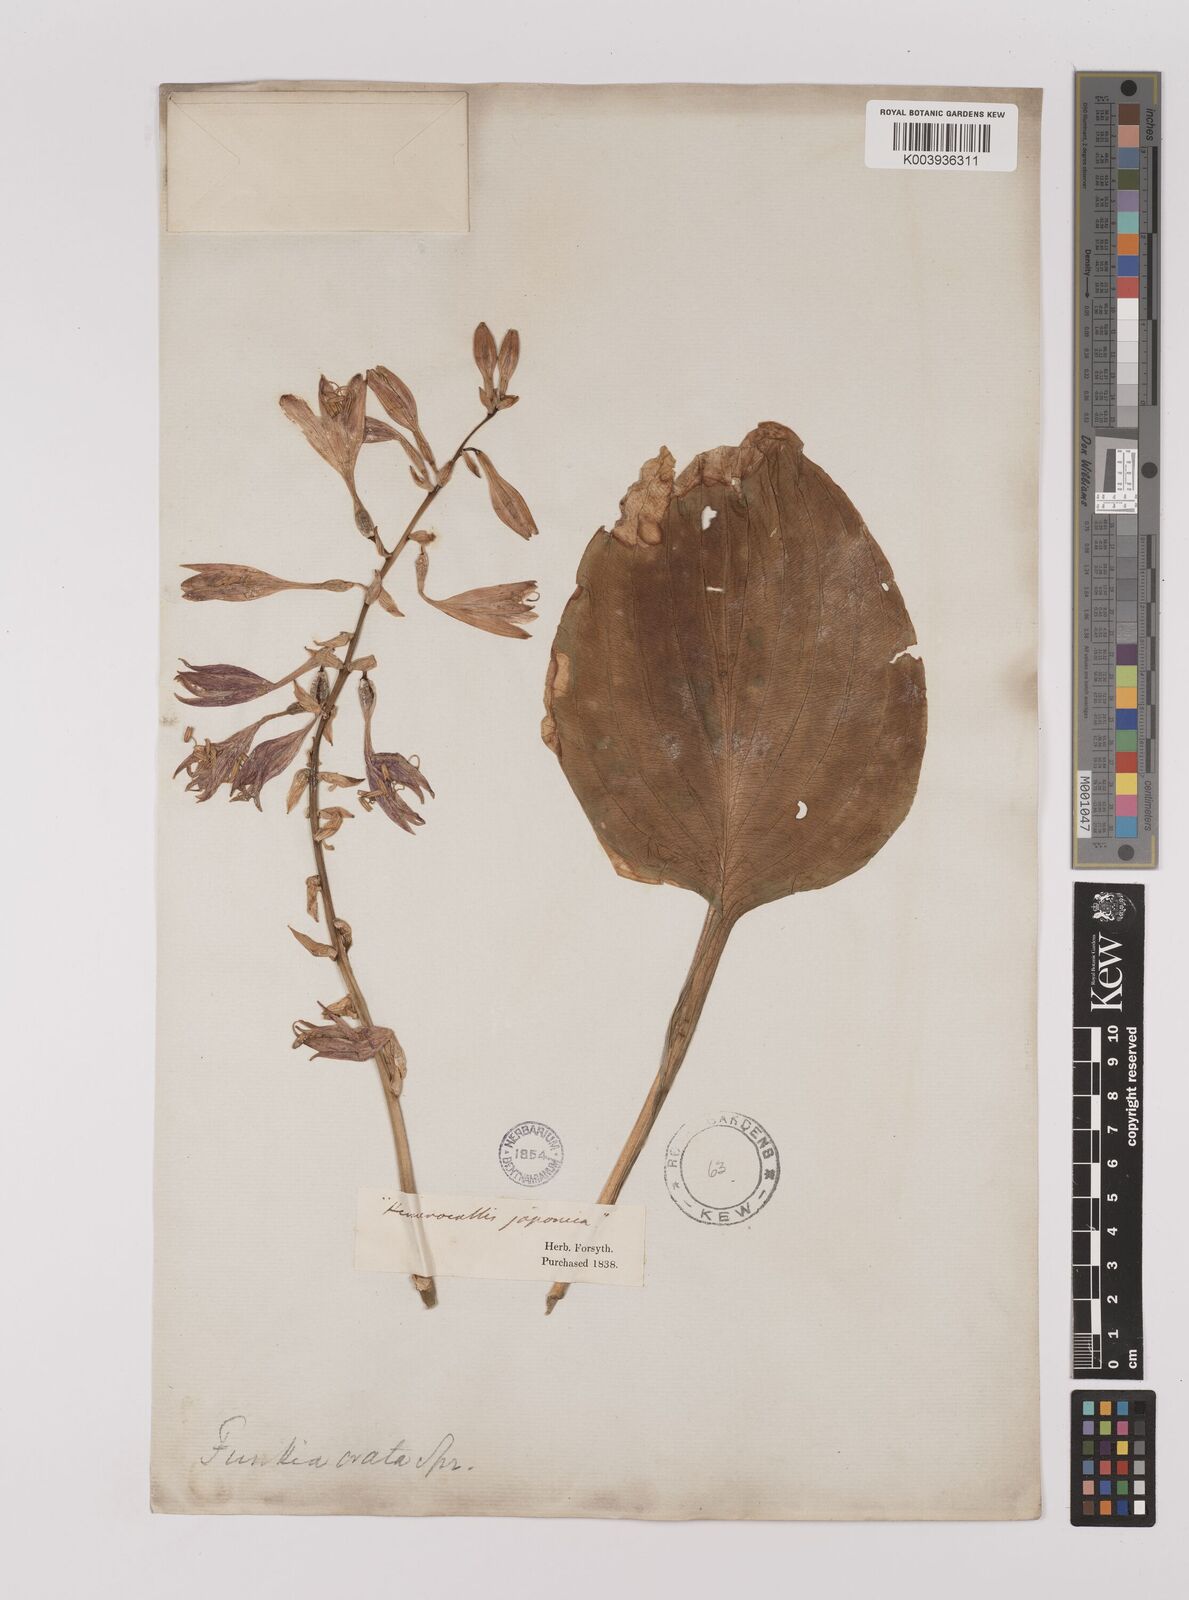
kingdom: Plantae
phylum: Tracheophyta
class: Liliopsida
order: Asparagales
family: Asparagaceae
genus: Hosta
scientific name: Hosta ventricosa
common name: Blue plantain-lily
